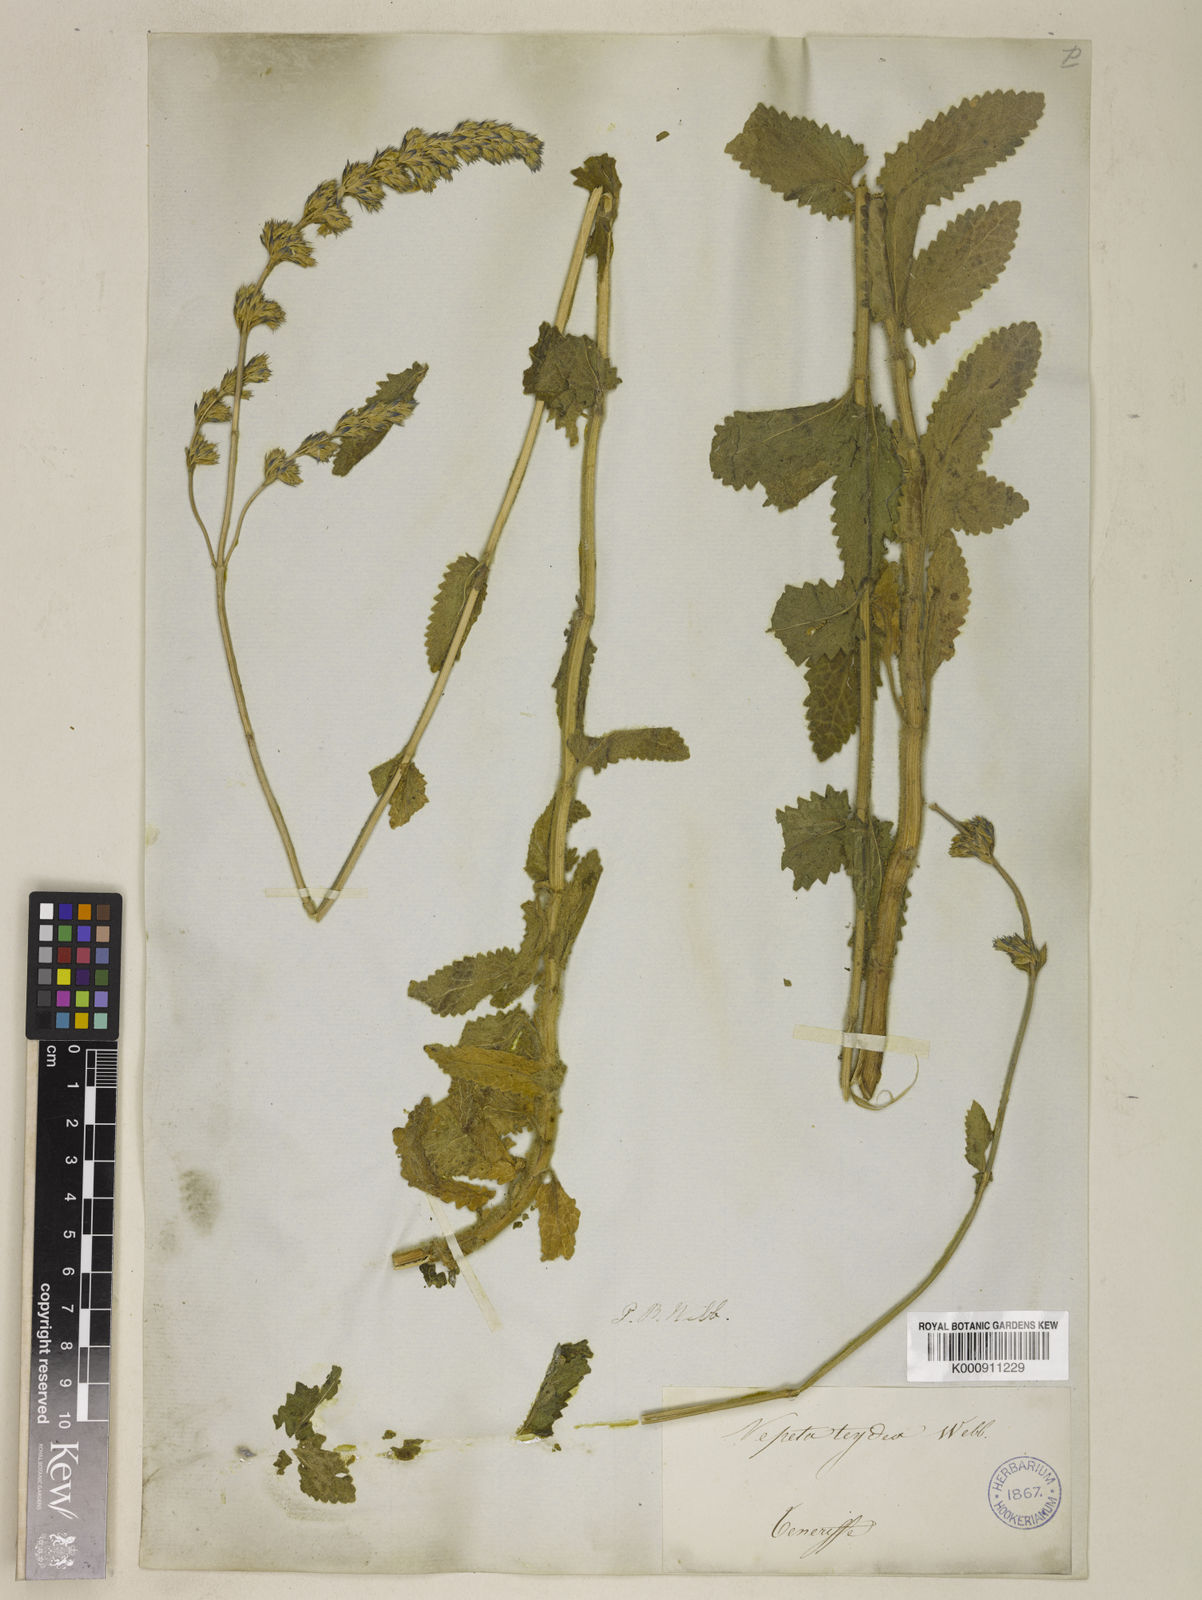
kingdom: Plantae
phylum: Tracheophyta
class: Magnoliopsida
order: Lamiales
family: Lamiaceae
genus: Nepeta
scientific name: Nepeta teydea
